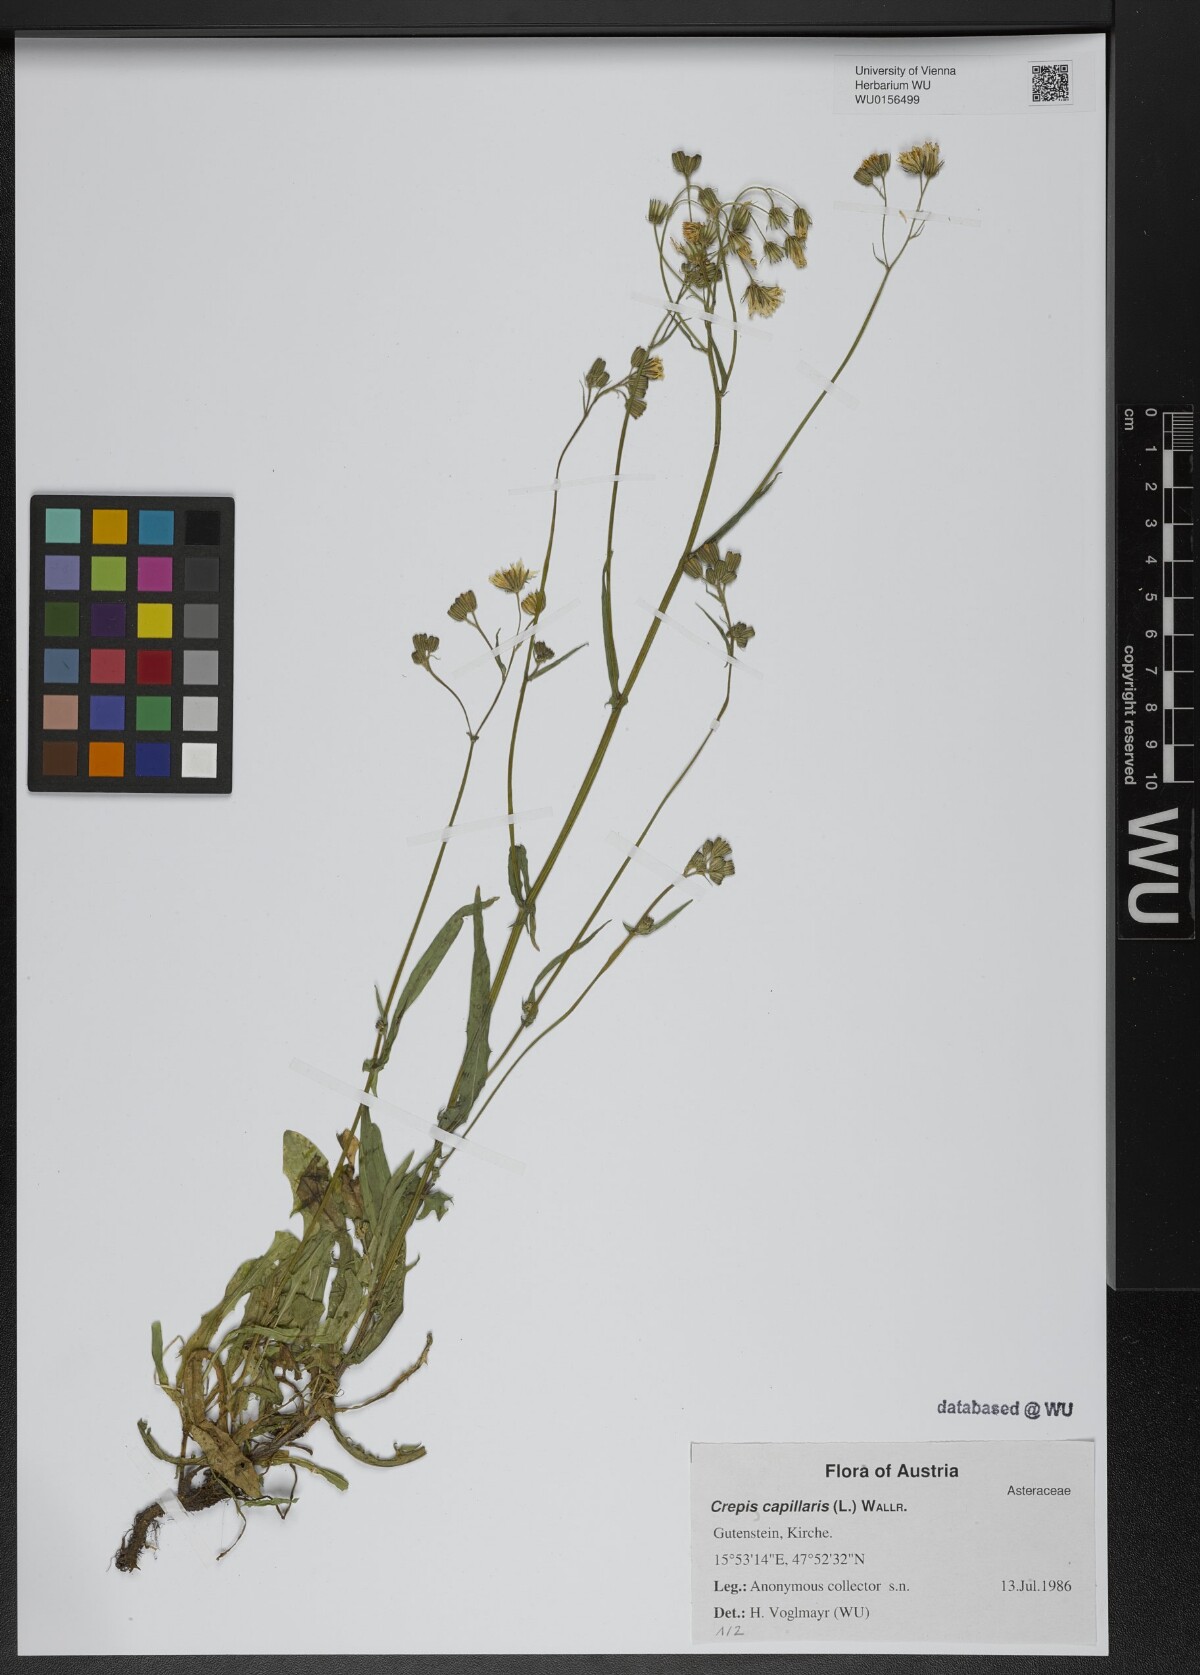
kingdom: Plantae
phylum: Tracheophyta
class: Magnoliopsida
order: Asterales
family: Asteraceae
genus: Crepis
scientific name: Crepis capillaris
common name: Smooth hawksbeard
